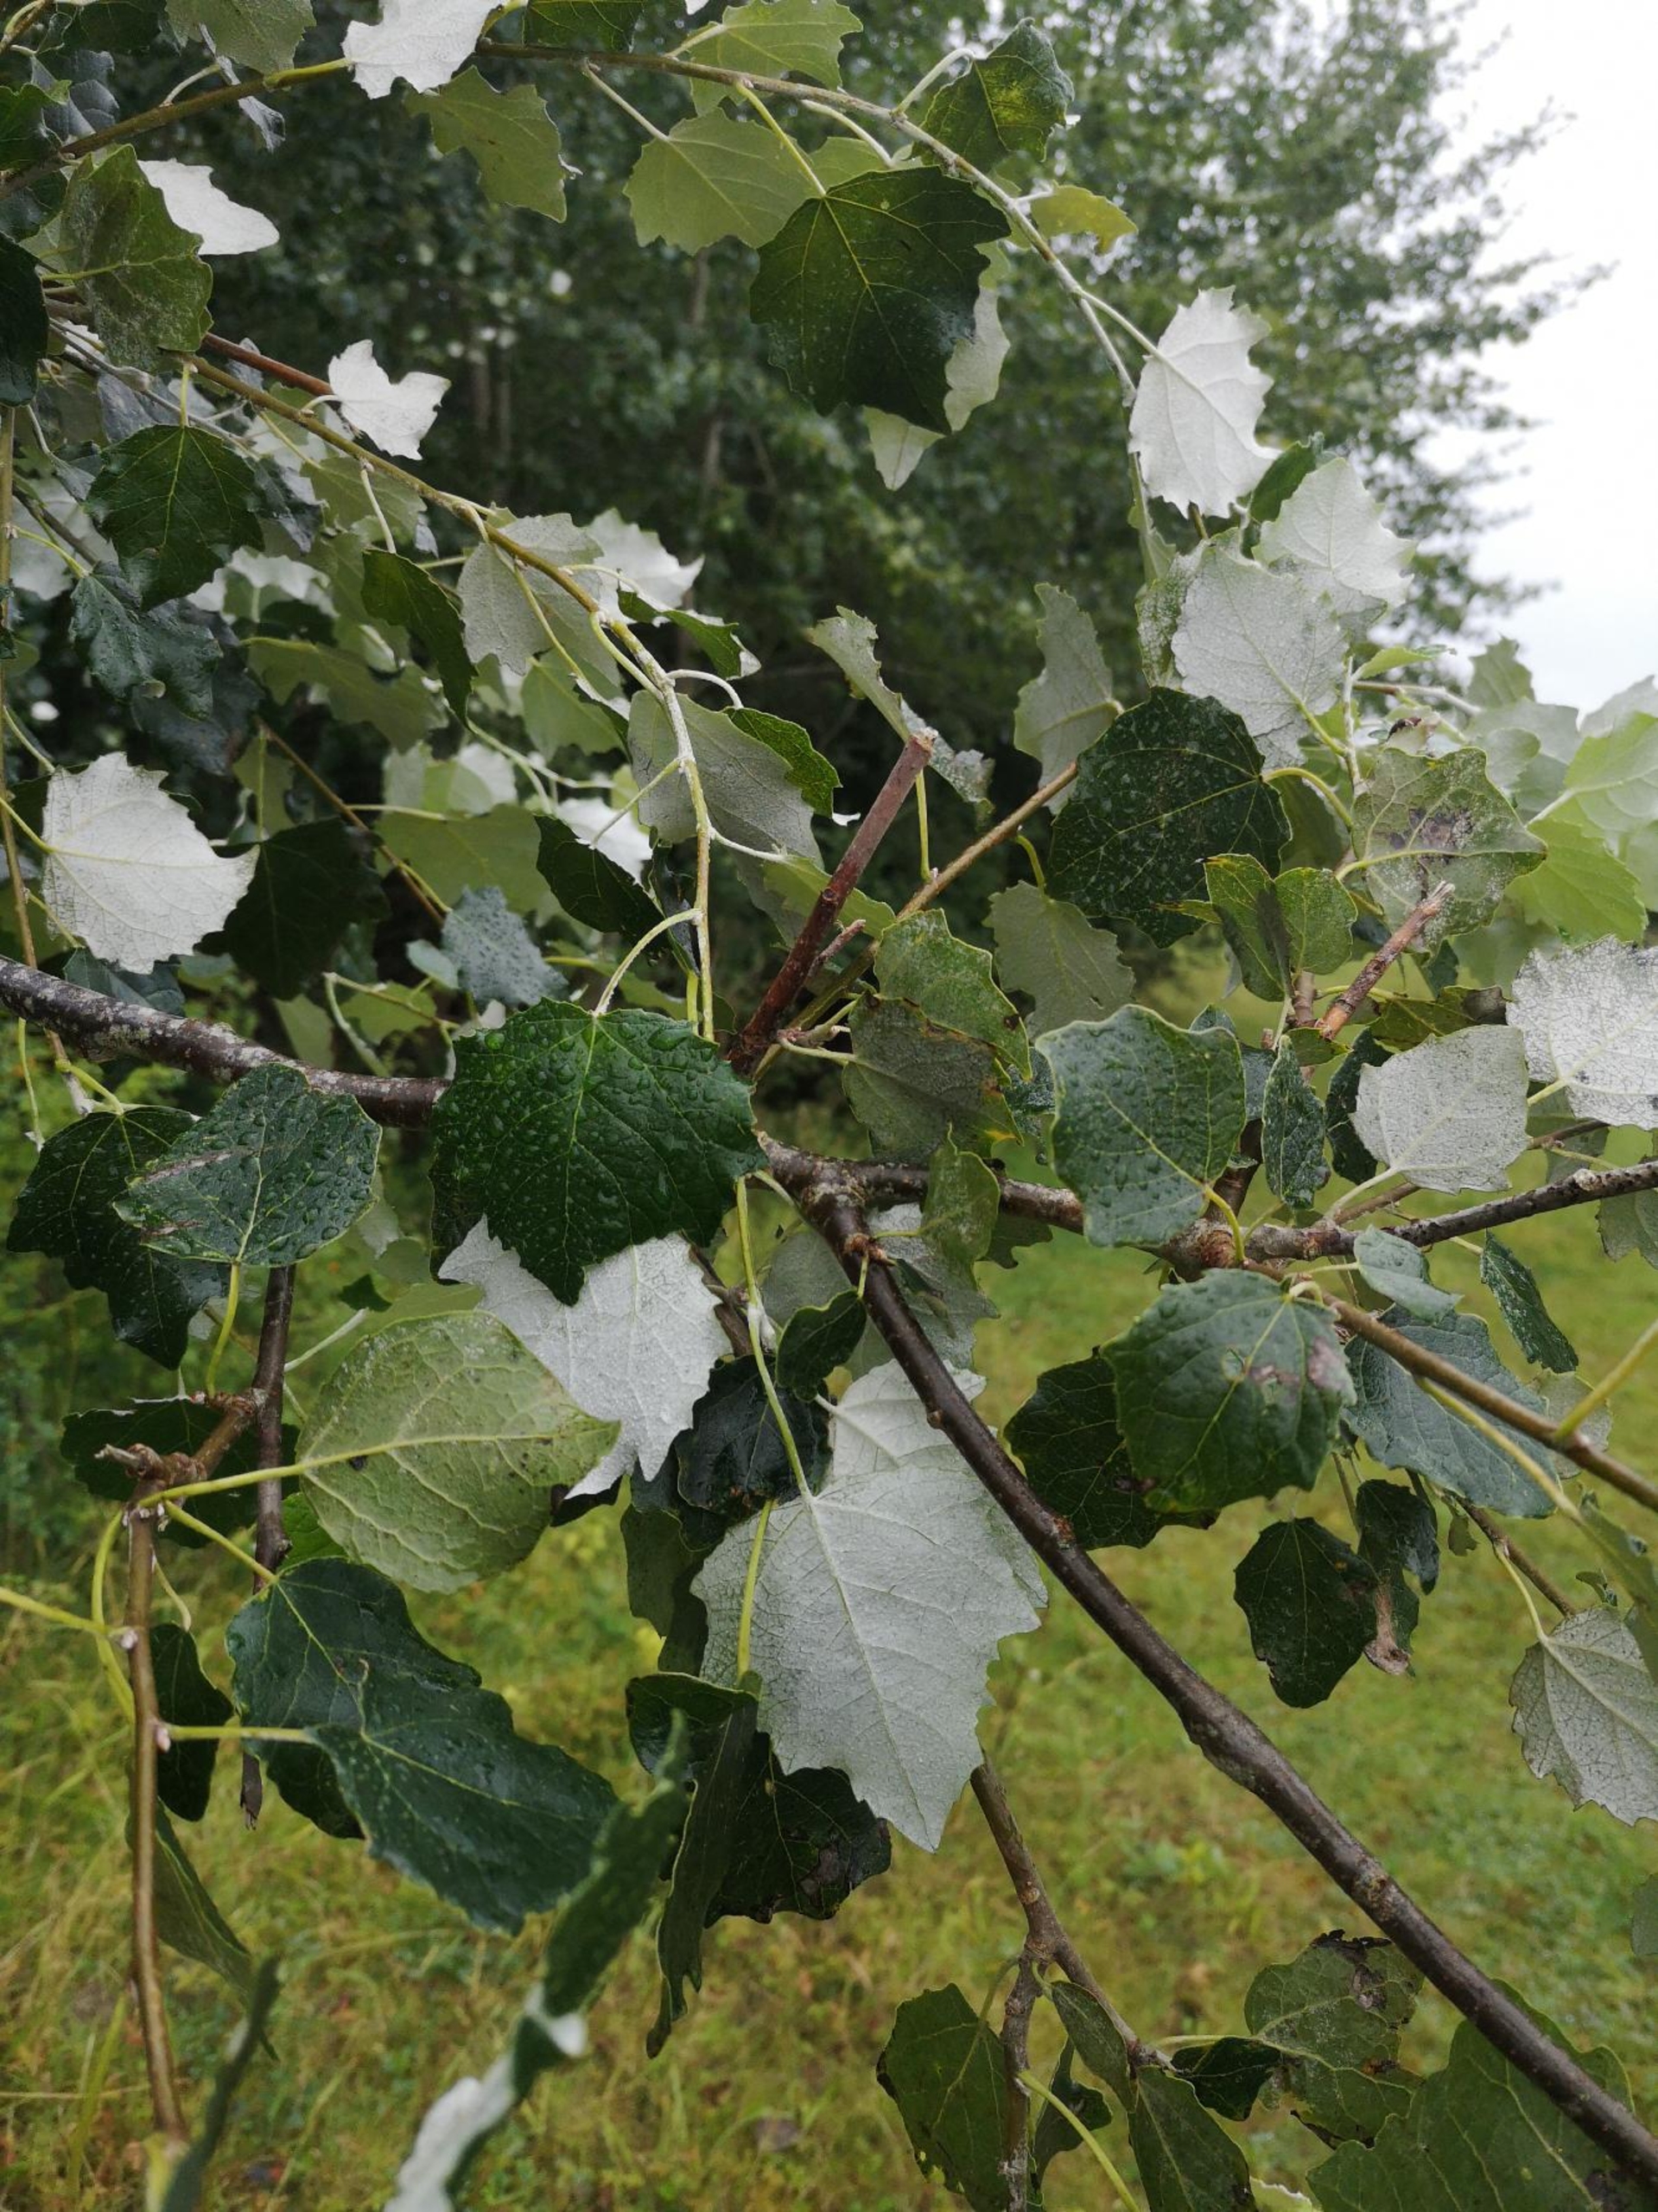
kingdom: Plantae
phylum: Tracheophyta
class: Magnoliopsida
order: Malpighiales
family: Salicaceae
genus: Populus
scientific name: Populus alba
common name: Sølv-poppel
